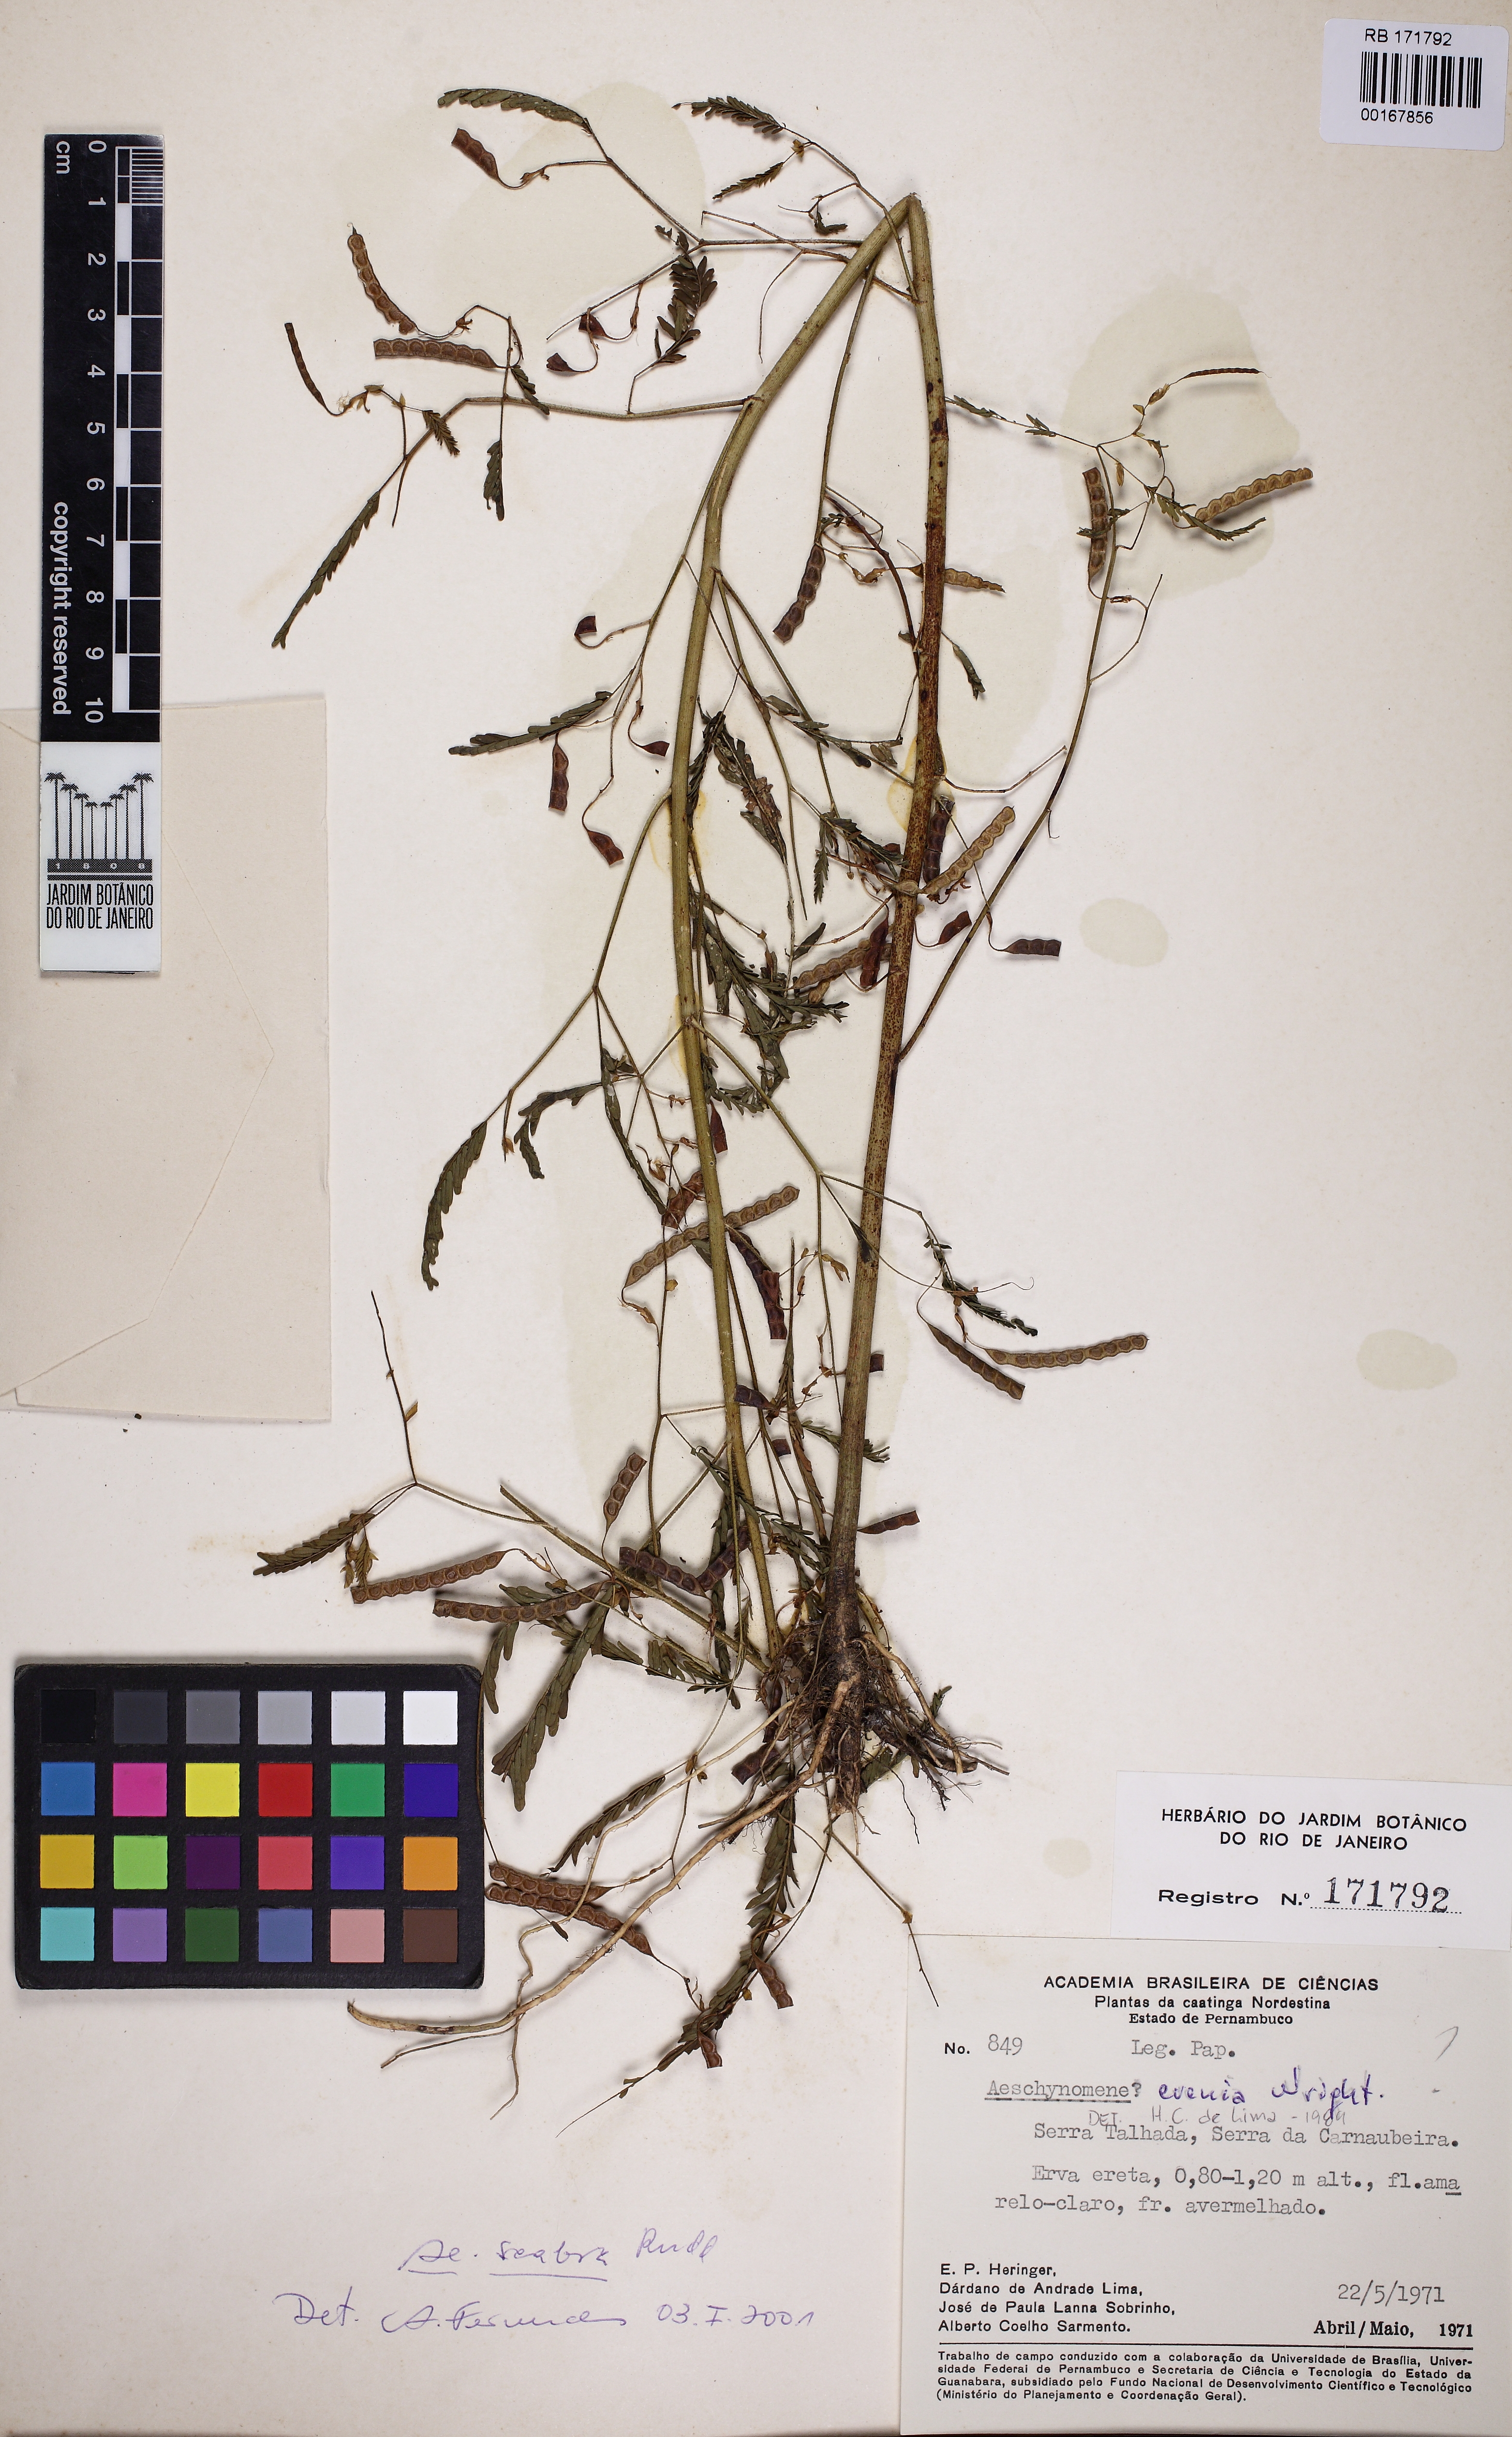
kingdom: Plantae
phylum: Tracheophyta
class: Magnoliopsida
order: Fabales
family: Fabaceae
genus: Aeschynomene
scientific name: Aeschynomene scabra
